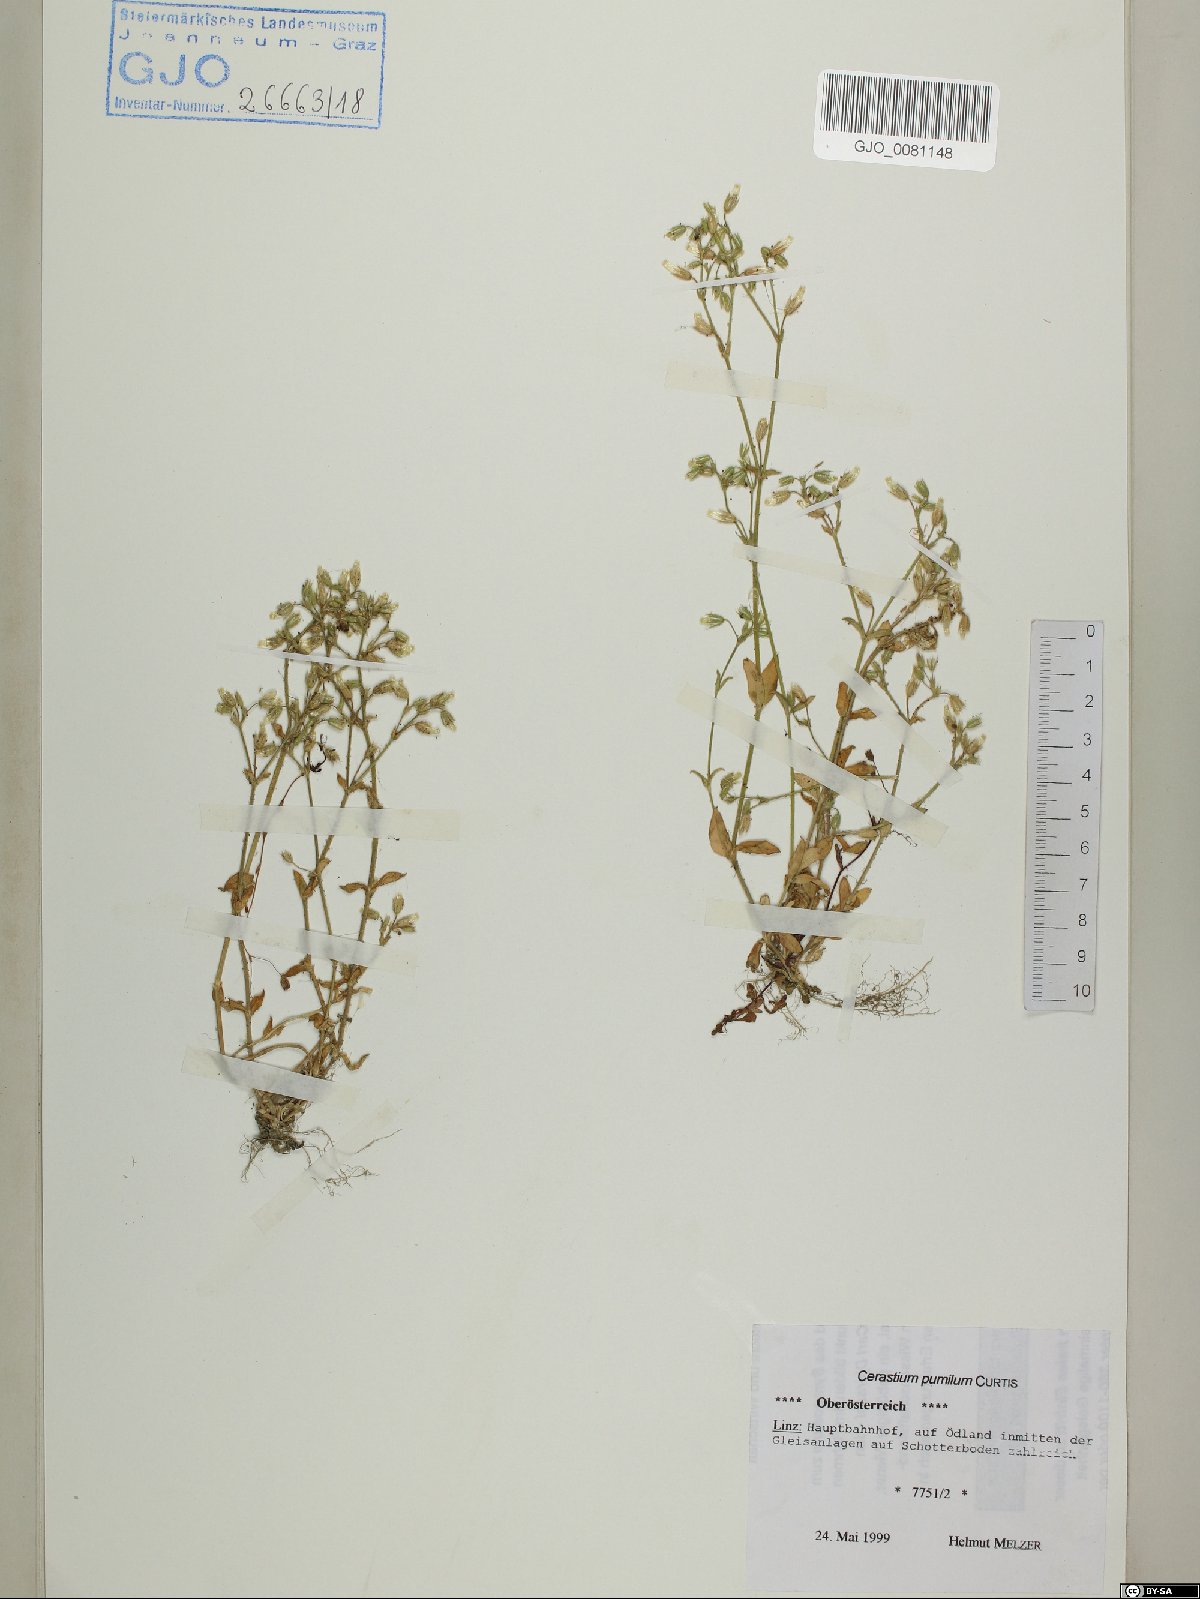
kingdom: Plantae
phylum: Tracheophyta
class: Magnoliopsida
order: Caryophyllales
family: Caryophyllaceae
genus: Cerastium
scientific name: Cerastium pumilum
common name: Dwarf mouse-ear
